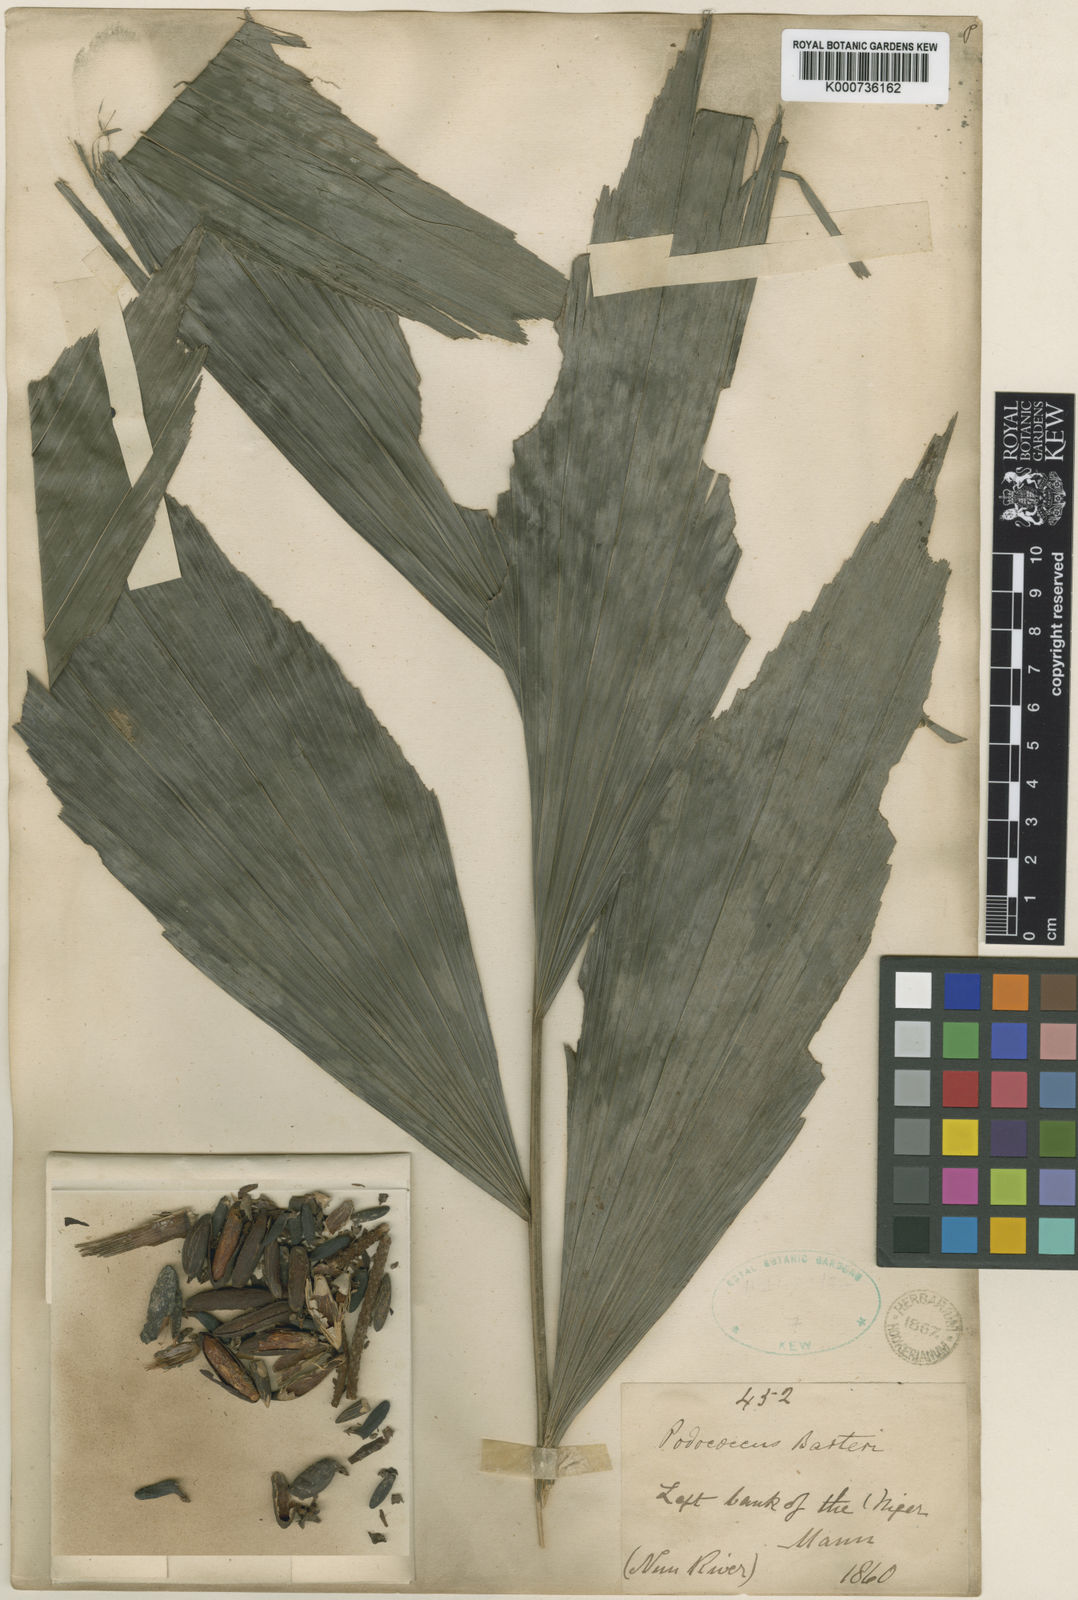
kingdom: Plantae
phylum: Tracheophyta
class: Liliopsida
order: Arecales
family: Arecaceae
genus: Podococcus
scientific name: Podococcus barteri
